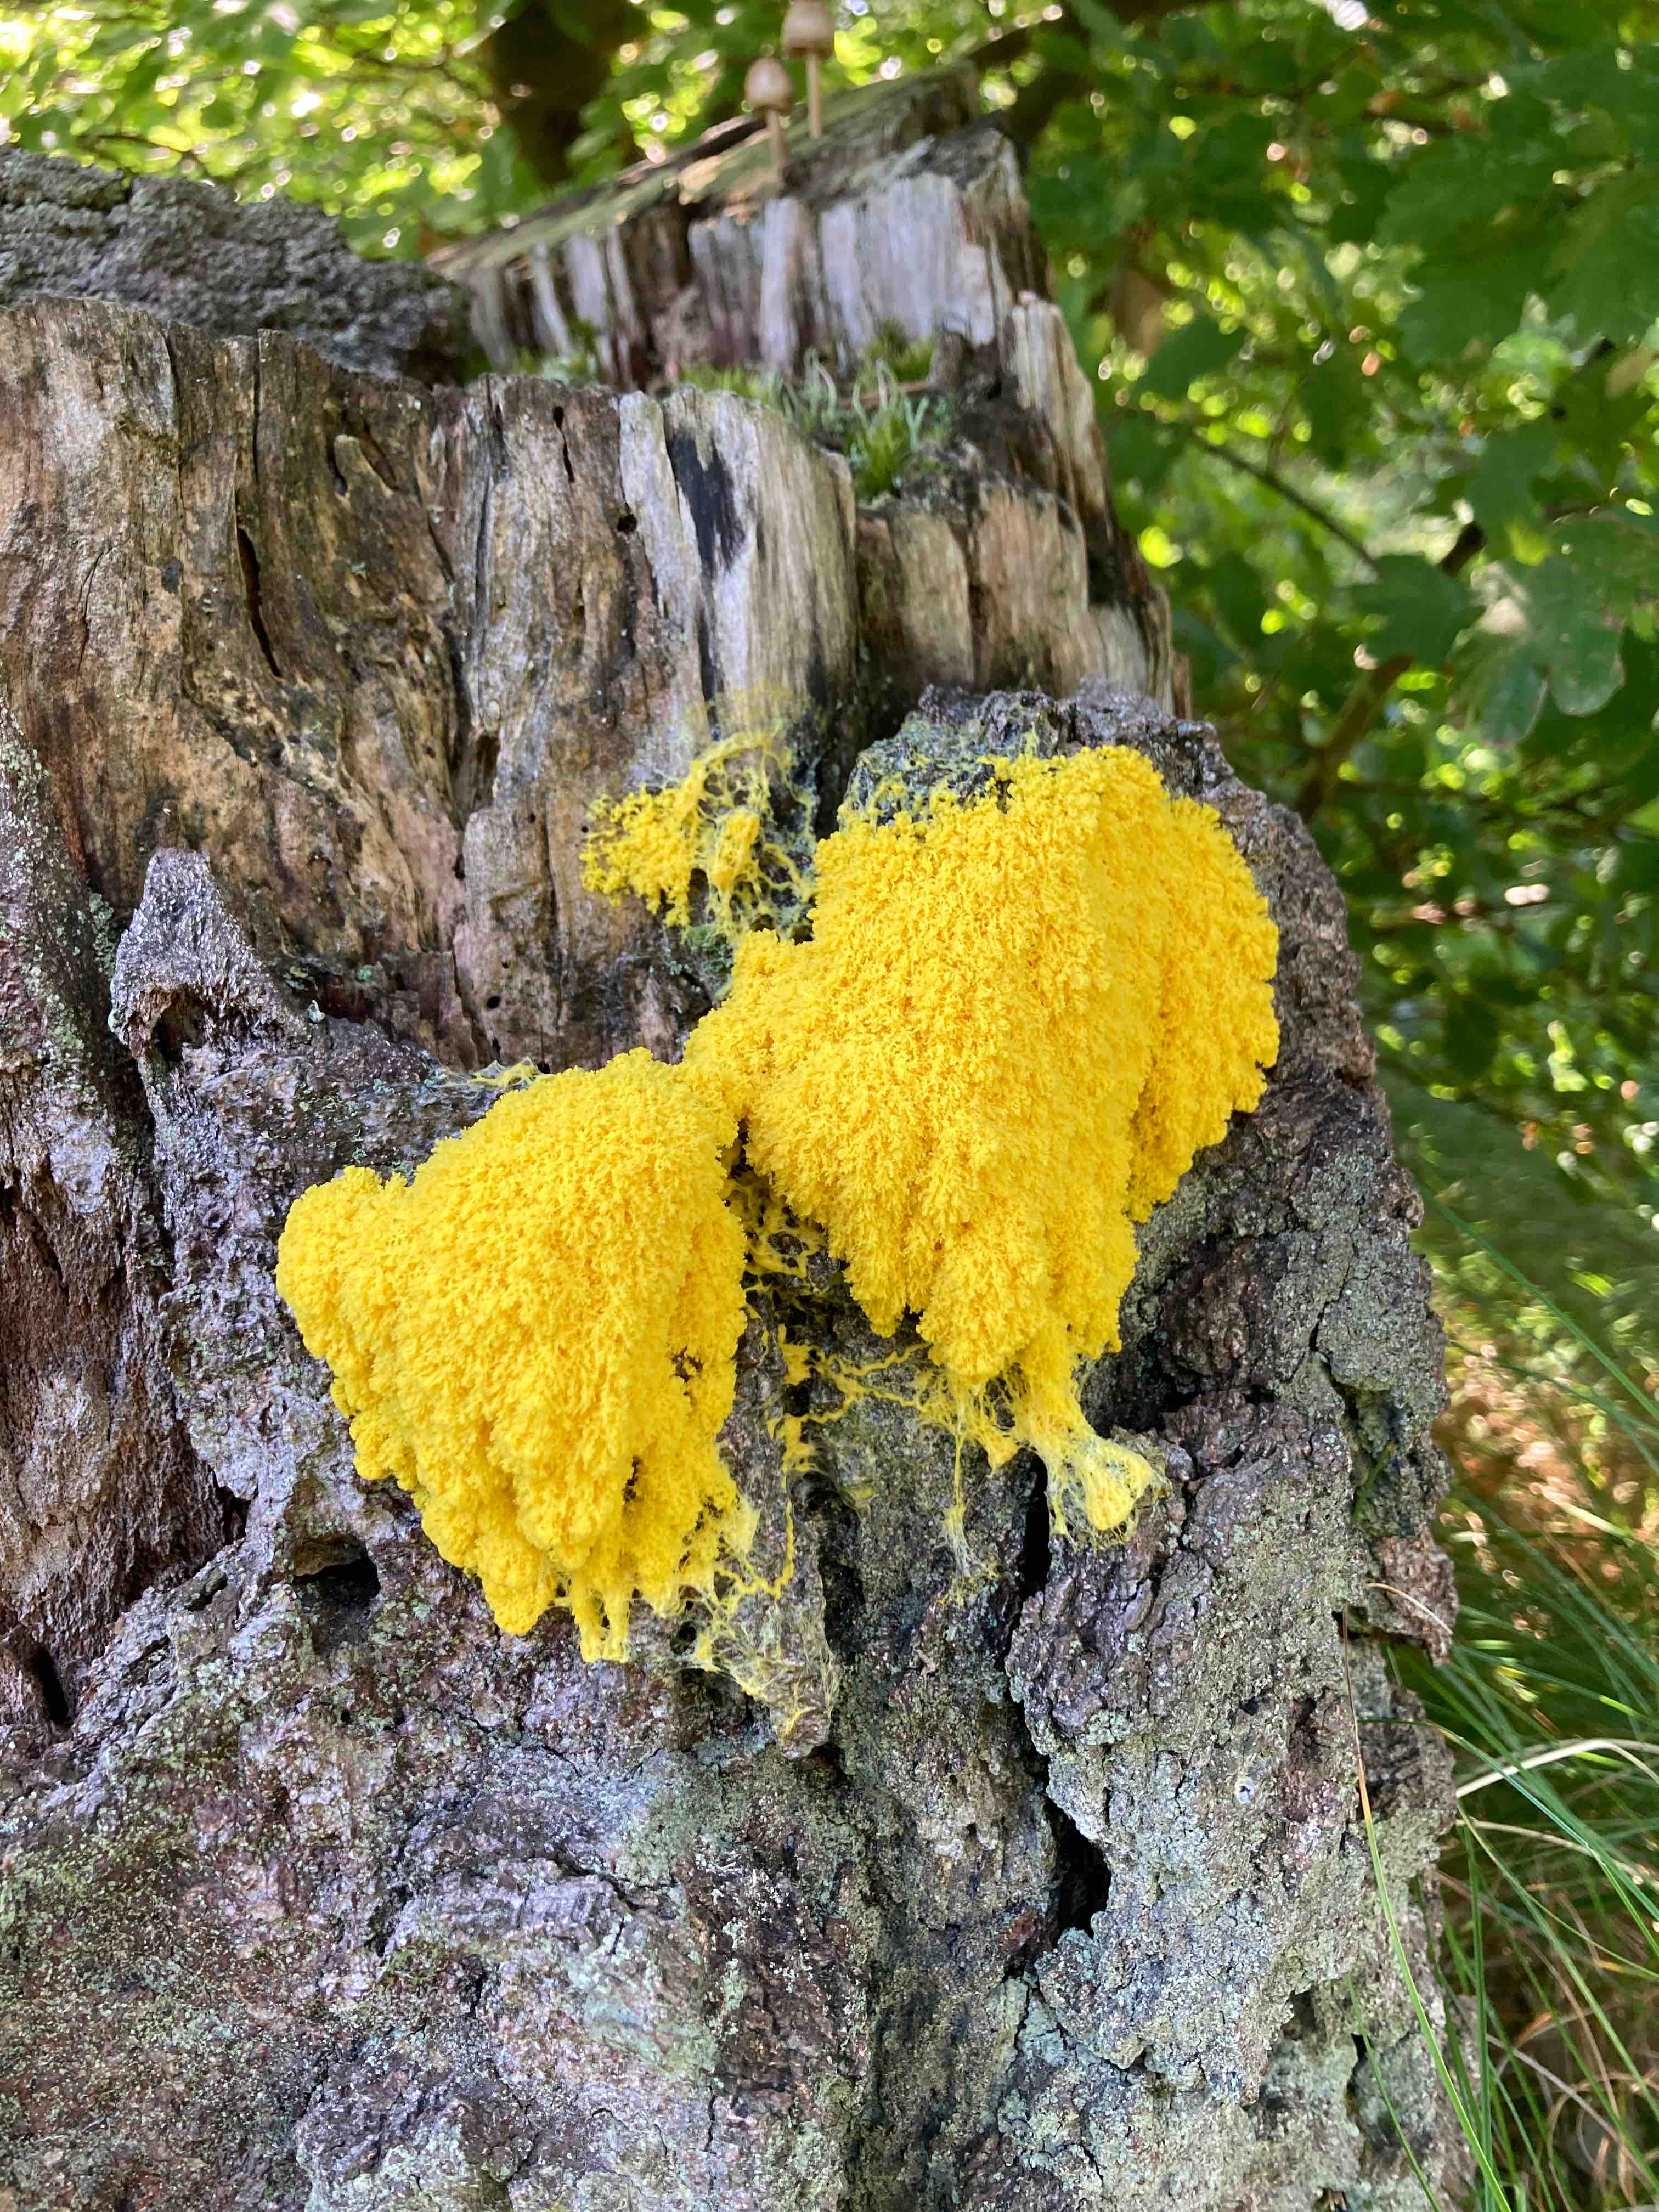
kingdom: Protozoa
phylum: Mycetozoa
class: Myxomycetes
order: Physarales
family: Physaraceae
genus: Fuligo
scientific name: Fuligo septica
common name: gul troldsmør
